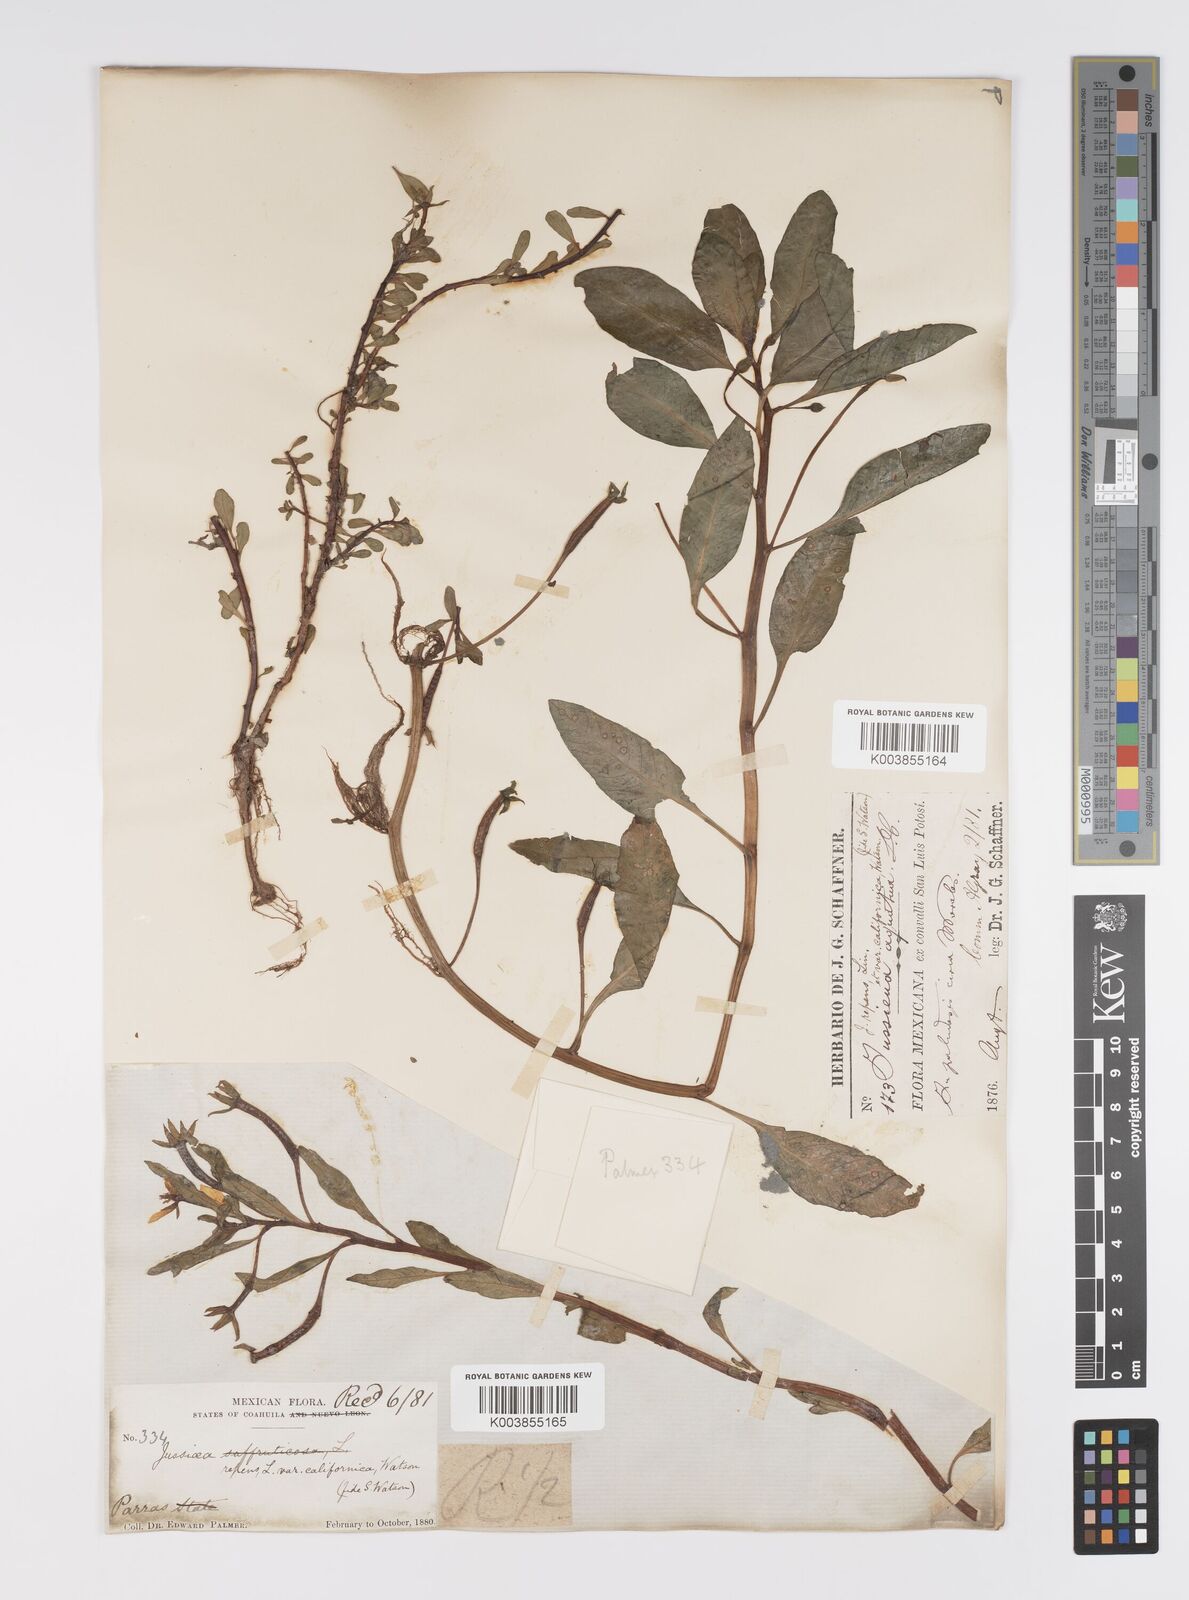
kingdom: Plantae
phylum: Tracheophyta
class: Magnoliopsida
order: Myrtales
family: Onagraceae
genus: Ludwigia
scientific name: Ludwigia adscendens
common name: Creeping water primrose
